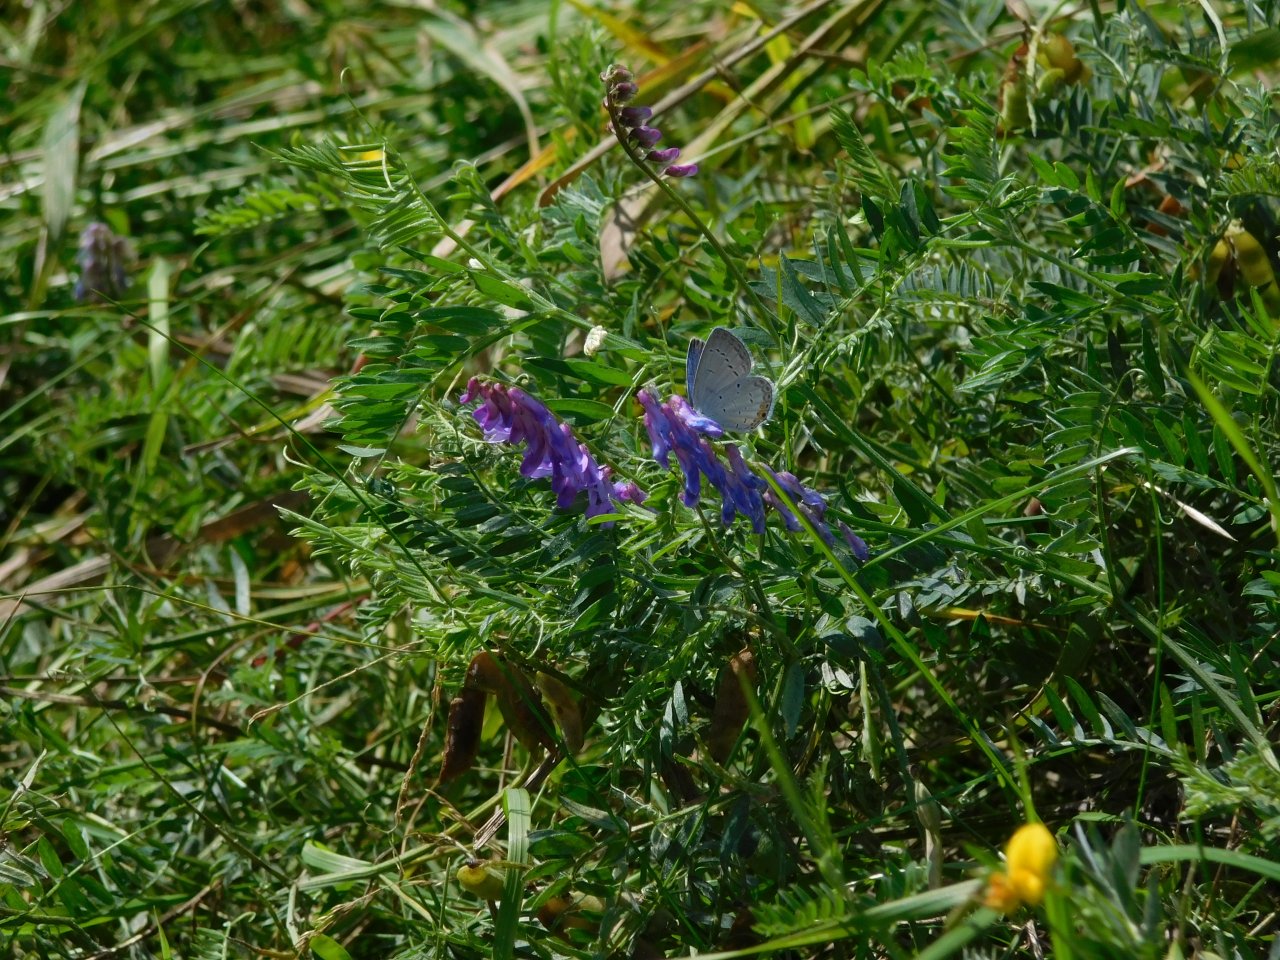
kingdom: Animalia
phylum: Arthropoda
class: Insecta
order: Lepidoptera
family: Lycaenidae
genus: Elkalyce
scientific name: Elkalyce comyntas
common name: Eastern Tailed-Blue
